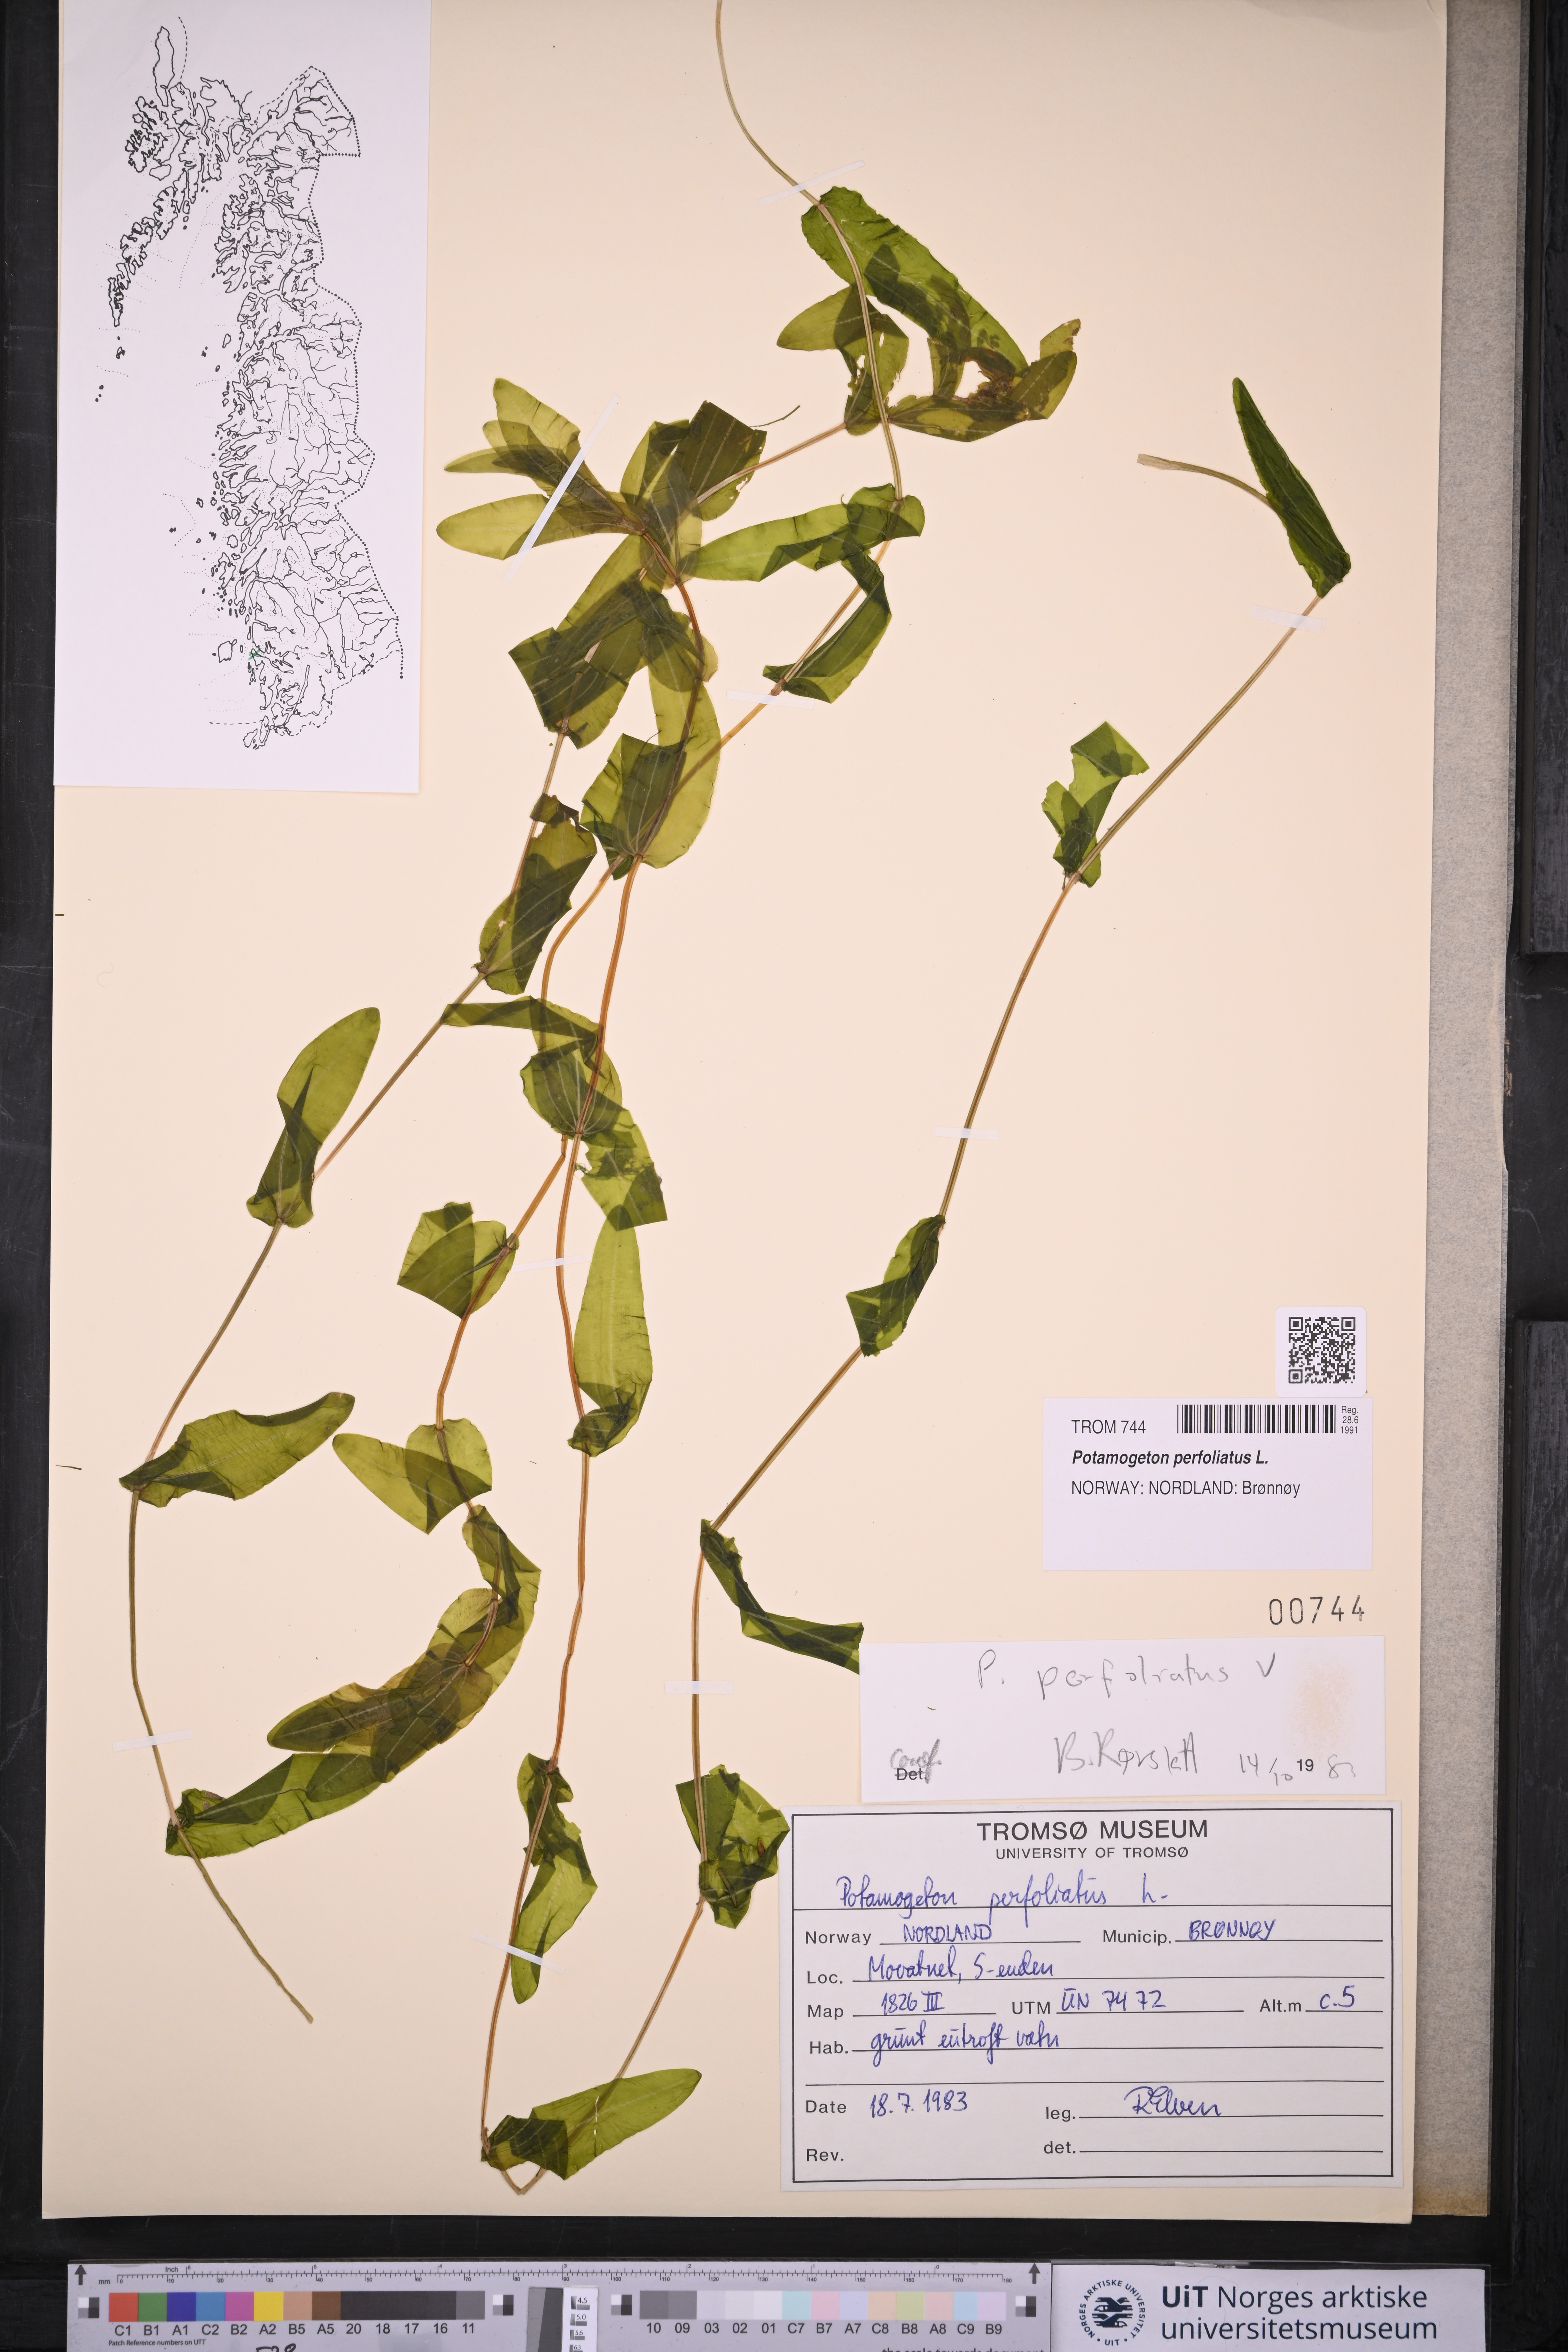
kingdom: Plantae
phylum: Tracheophyta
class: Liliopsida
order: Alismatales
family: Potamogetonaceae
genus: Potamogeton
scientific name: Potamogeton perfoliatus
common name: Perfoliate pondweed
